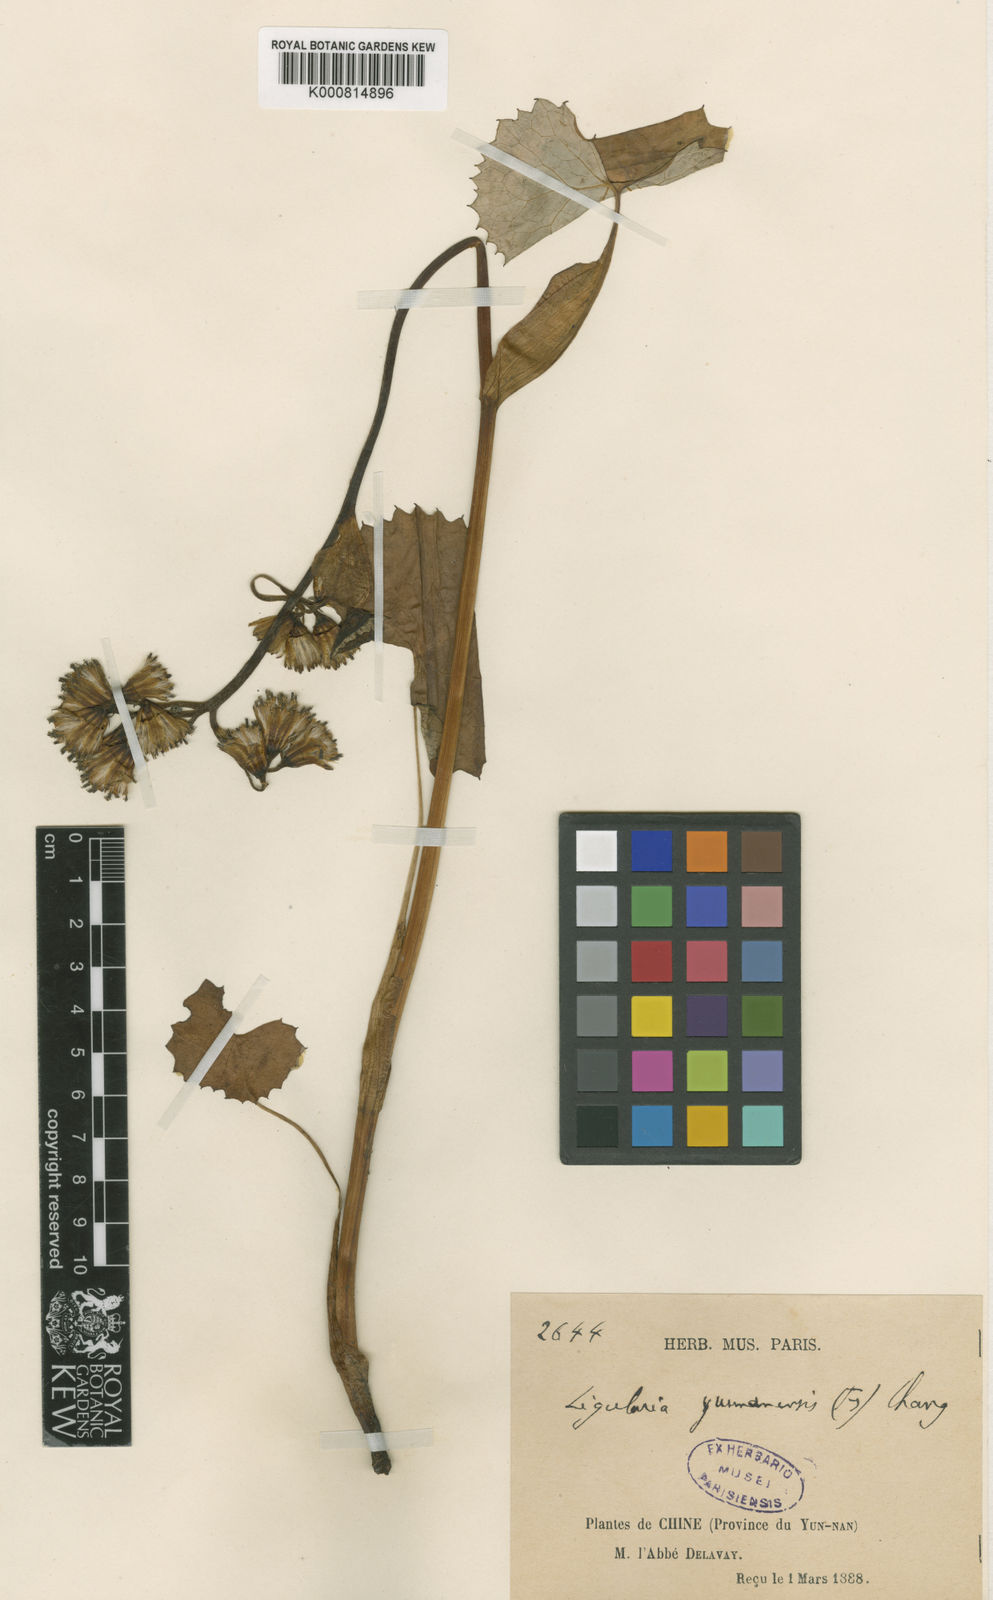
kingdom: Plantae
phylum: Tracheophyta
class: Magnoliopsida
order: Asterales
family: Asteraceae
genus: Ligularia
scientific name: Ligularia yunnanensis
